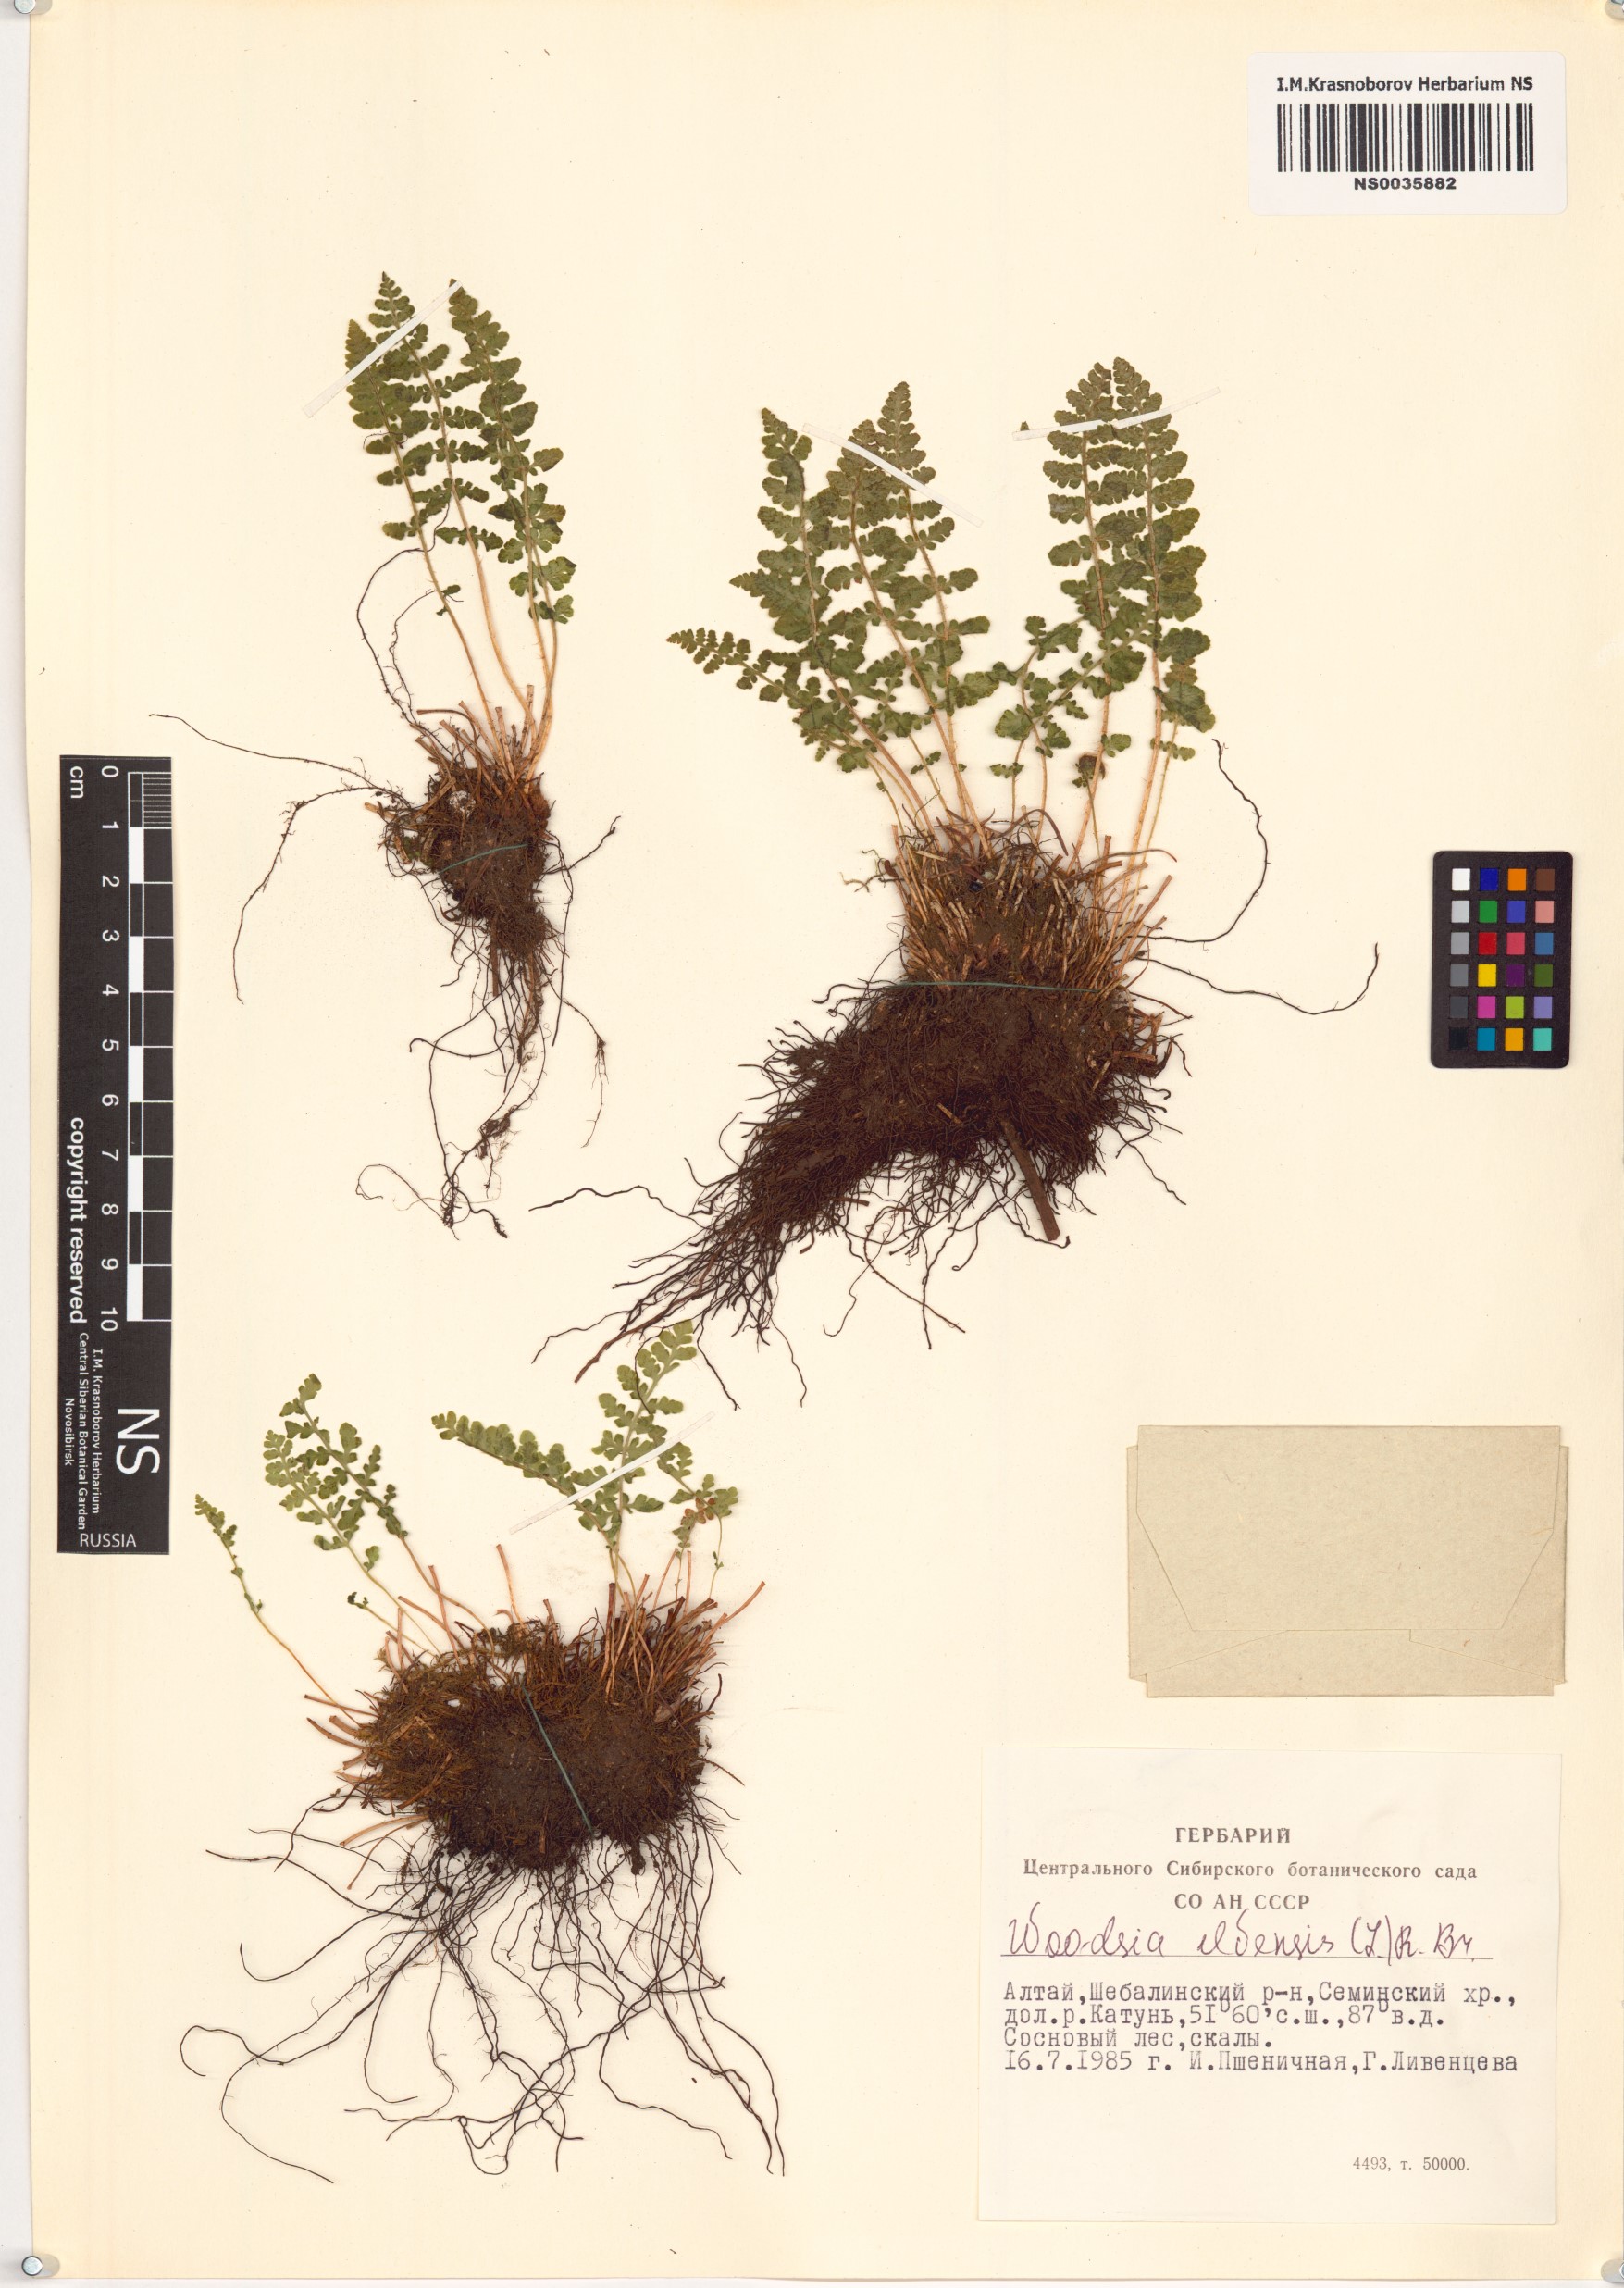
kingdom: Plantae
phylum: Tracheophyta
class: Polypodiopsida
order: Polypodiales
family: Woodsiaceae
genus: Woodsia
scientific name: Woodsia ilvensis
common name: Fragrant woodsia
